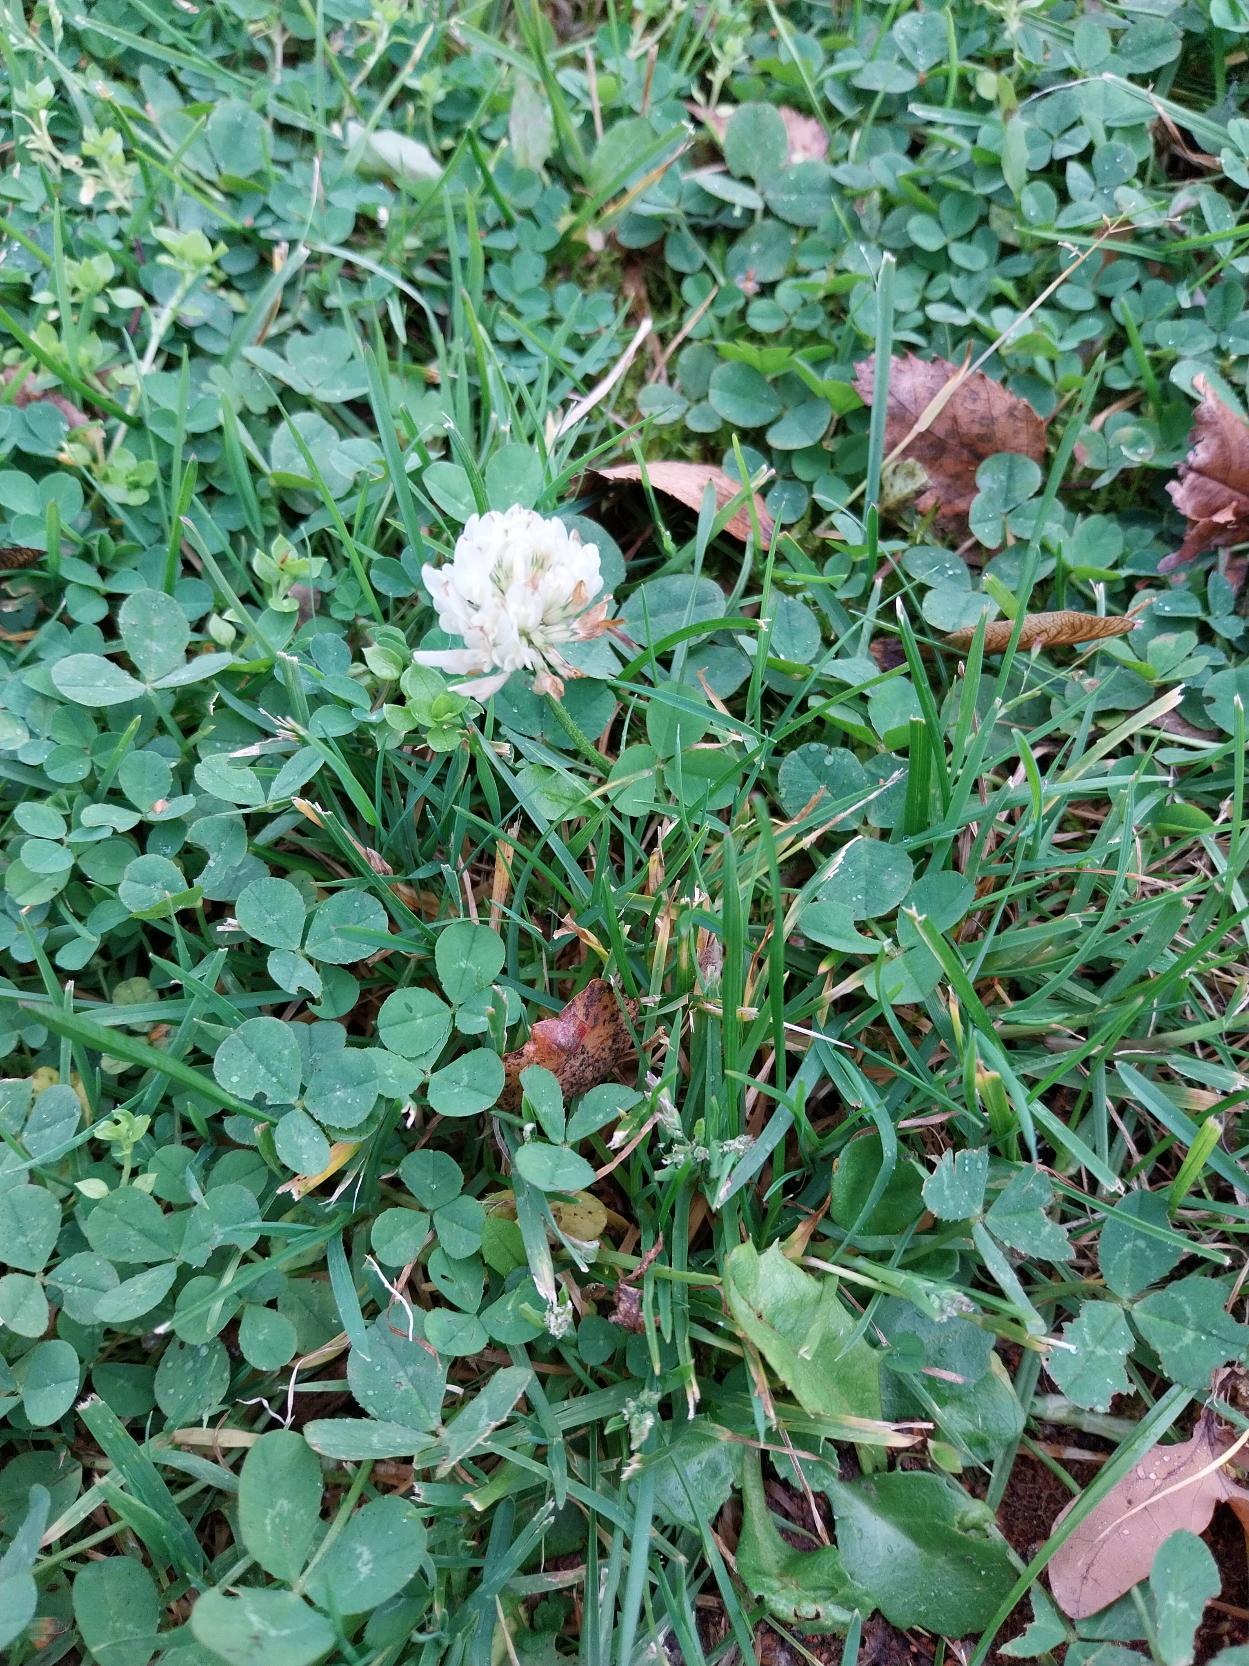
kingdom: Plantae
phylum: Tracheophyta
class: Magnoliopsida
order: Fabales
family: Fabaceae
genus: Trifolium
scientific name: Trifolium repens
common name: Hvid-kløver
